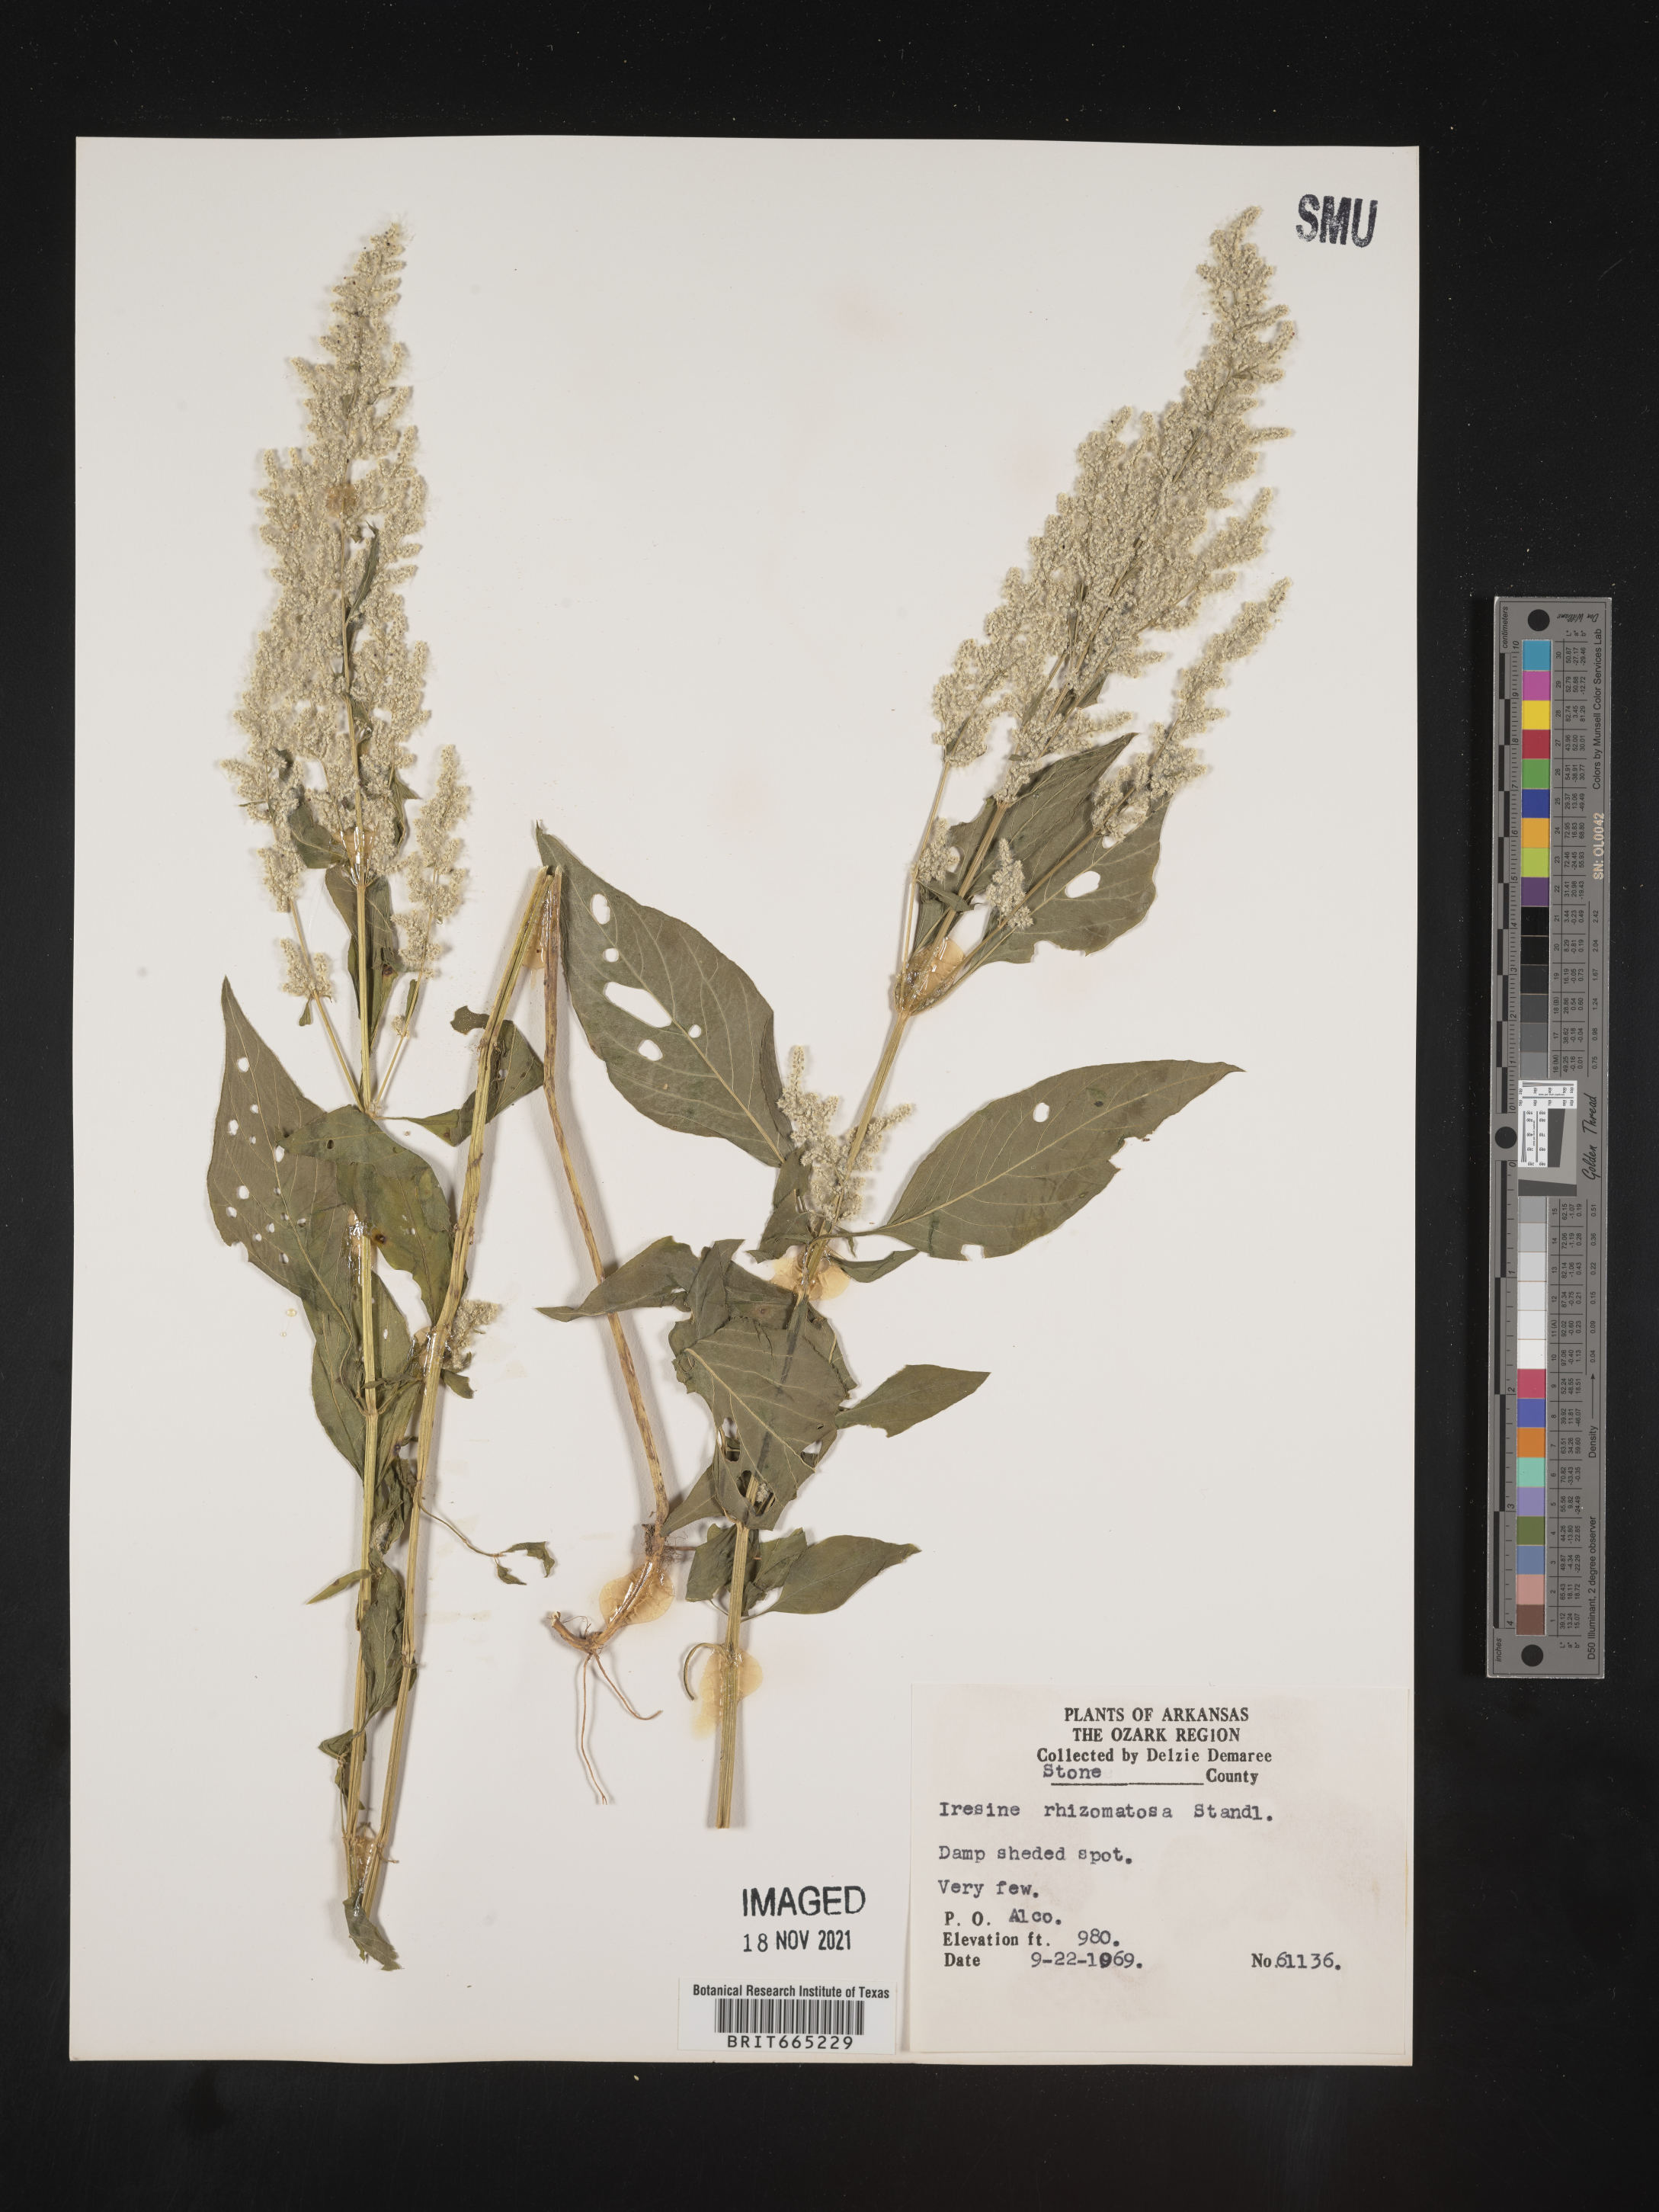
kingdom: Plantae
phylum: Tracheophyta
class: Magnoliopsida
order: Caryophyllales
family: Amaranthaceae
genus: Iresine
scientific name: Iresine rhizomatosa
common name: Juda's-bush
